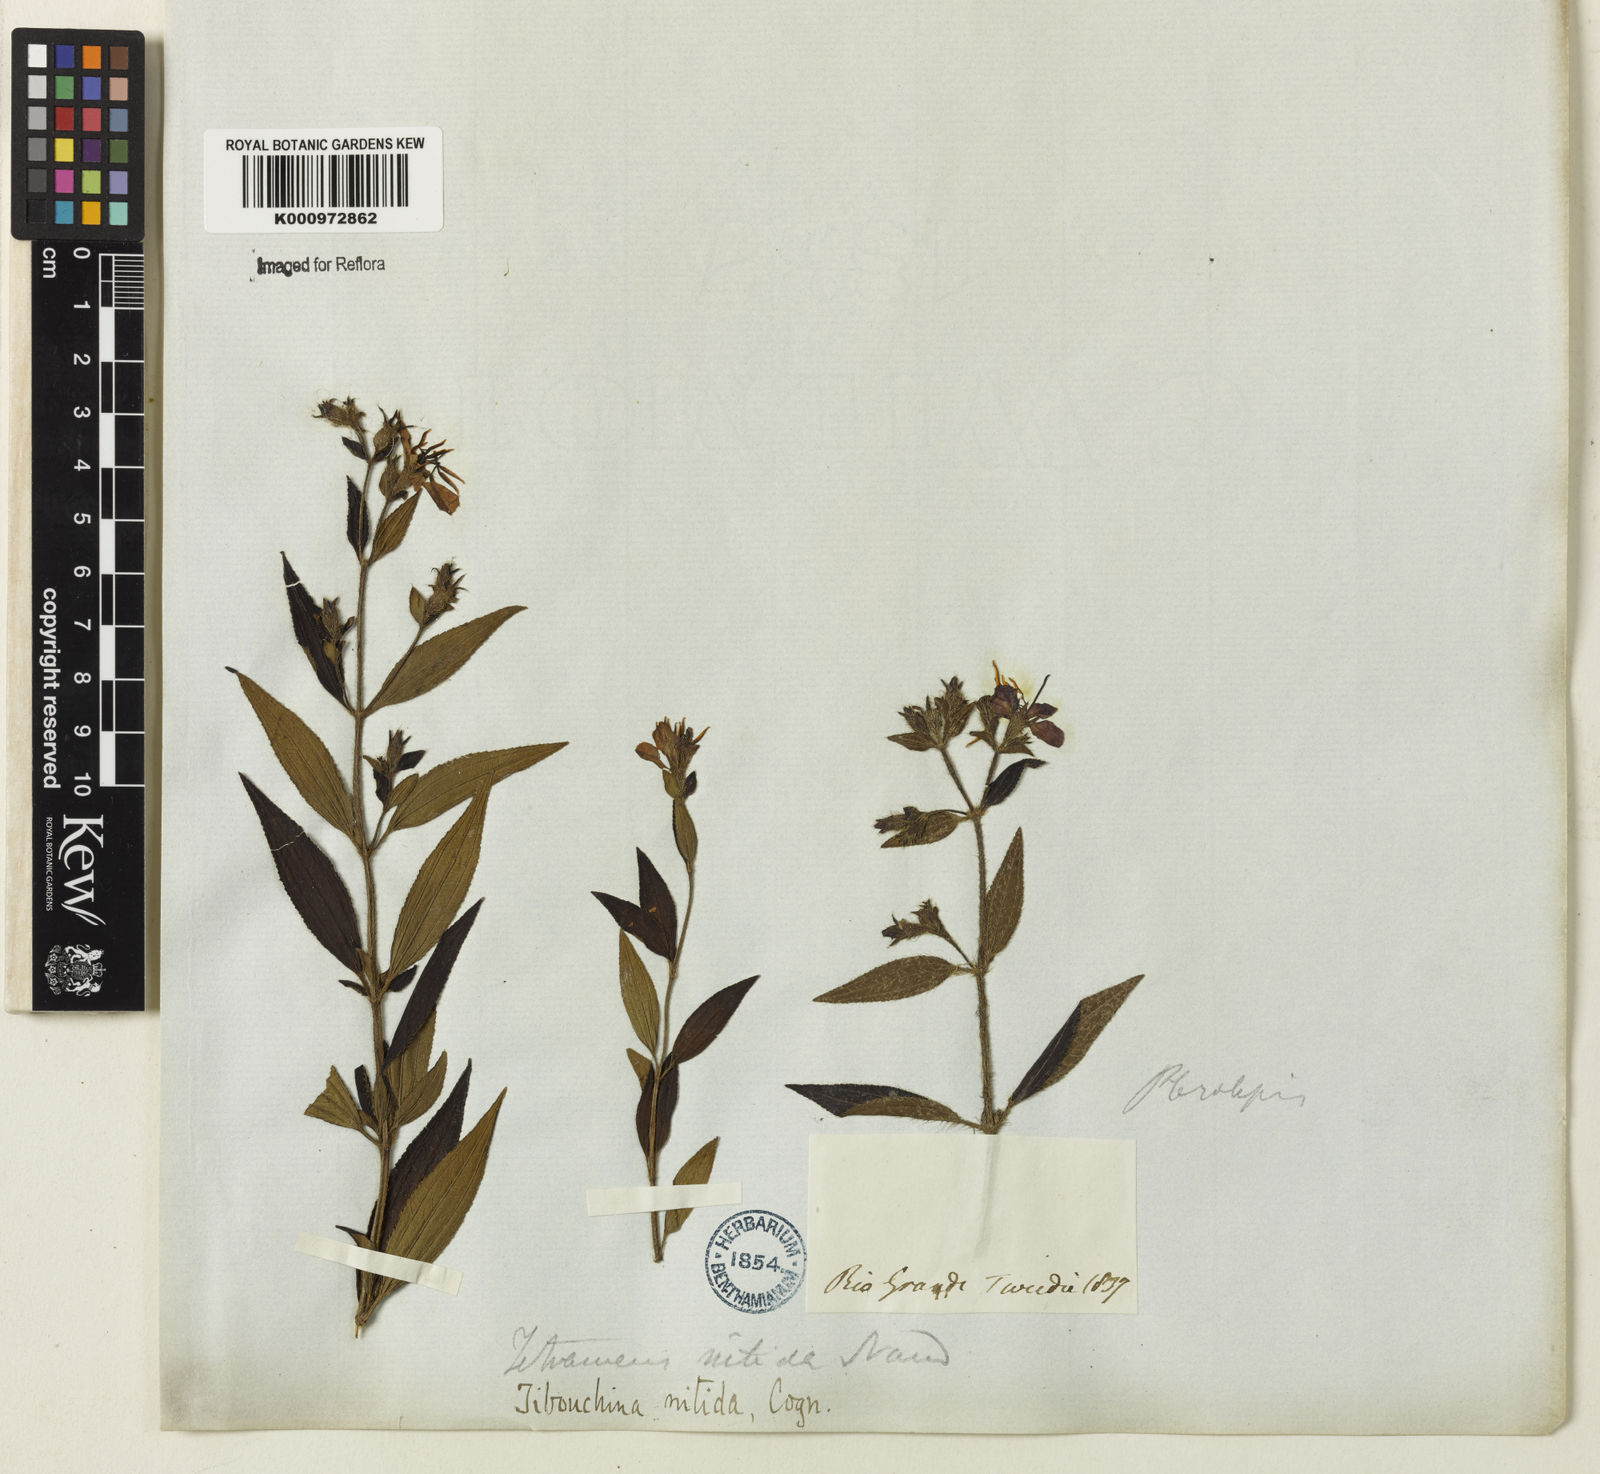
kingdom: Plantae
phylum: Tracheophyta
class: Magnoliopsida
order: Myrtales
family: Melastomataceae
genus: Chaetogastra
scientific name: Chaetogastra nitida
